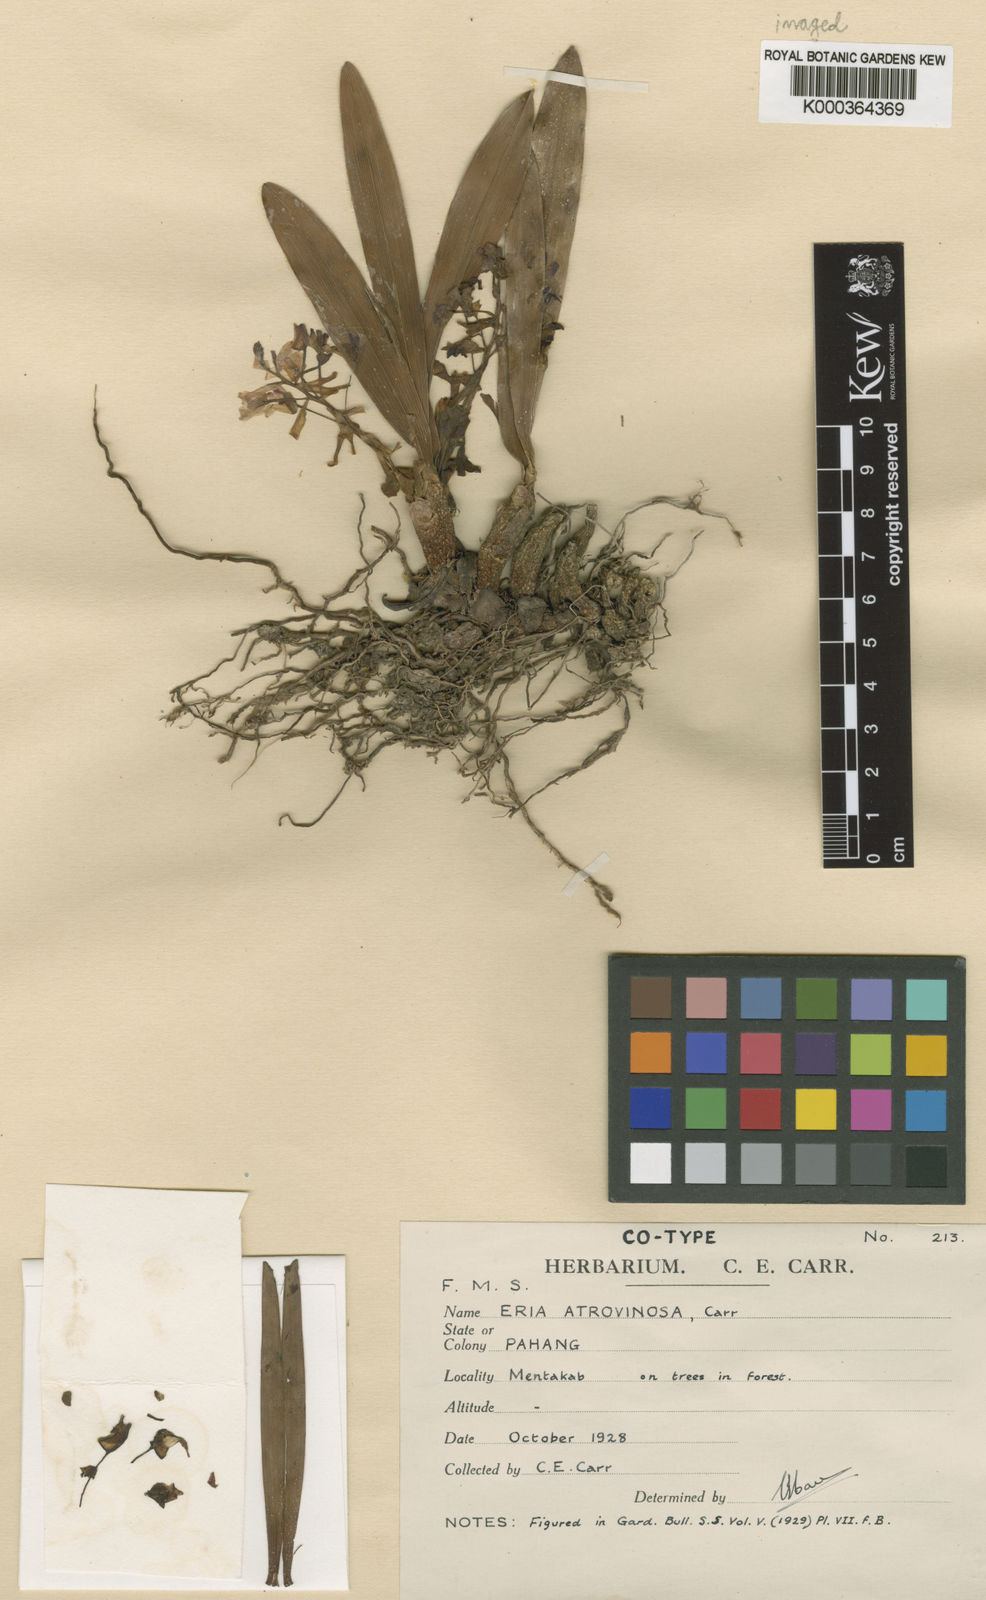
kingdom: Plantae
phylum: Tracheophyta
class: Liliopsida
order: Asparagales
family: Orchidaceae
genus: Pinalia
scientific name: Pinalia atrovinosa
